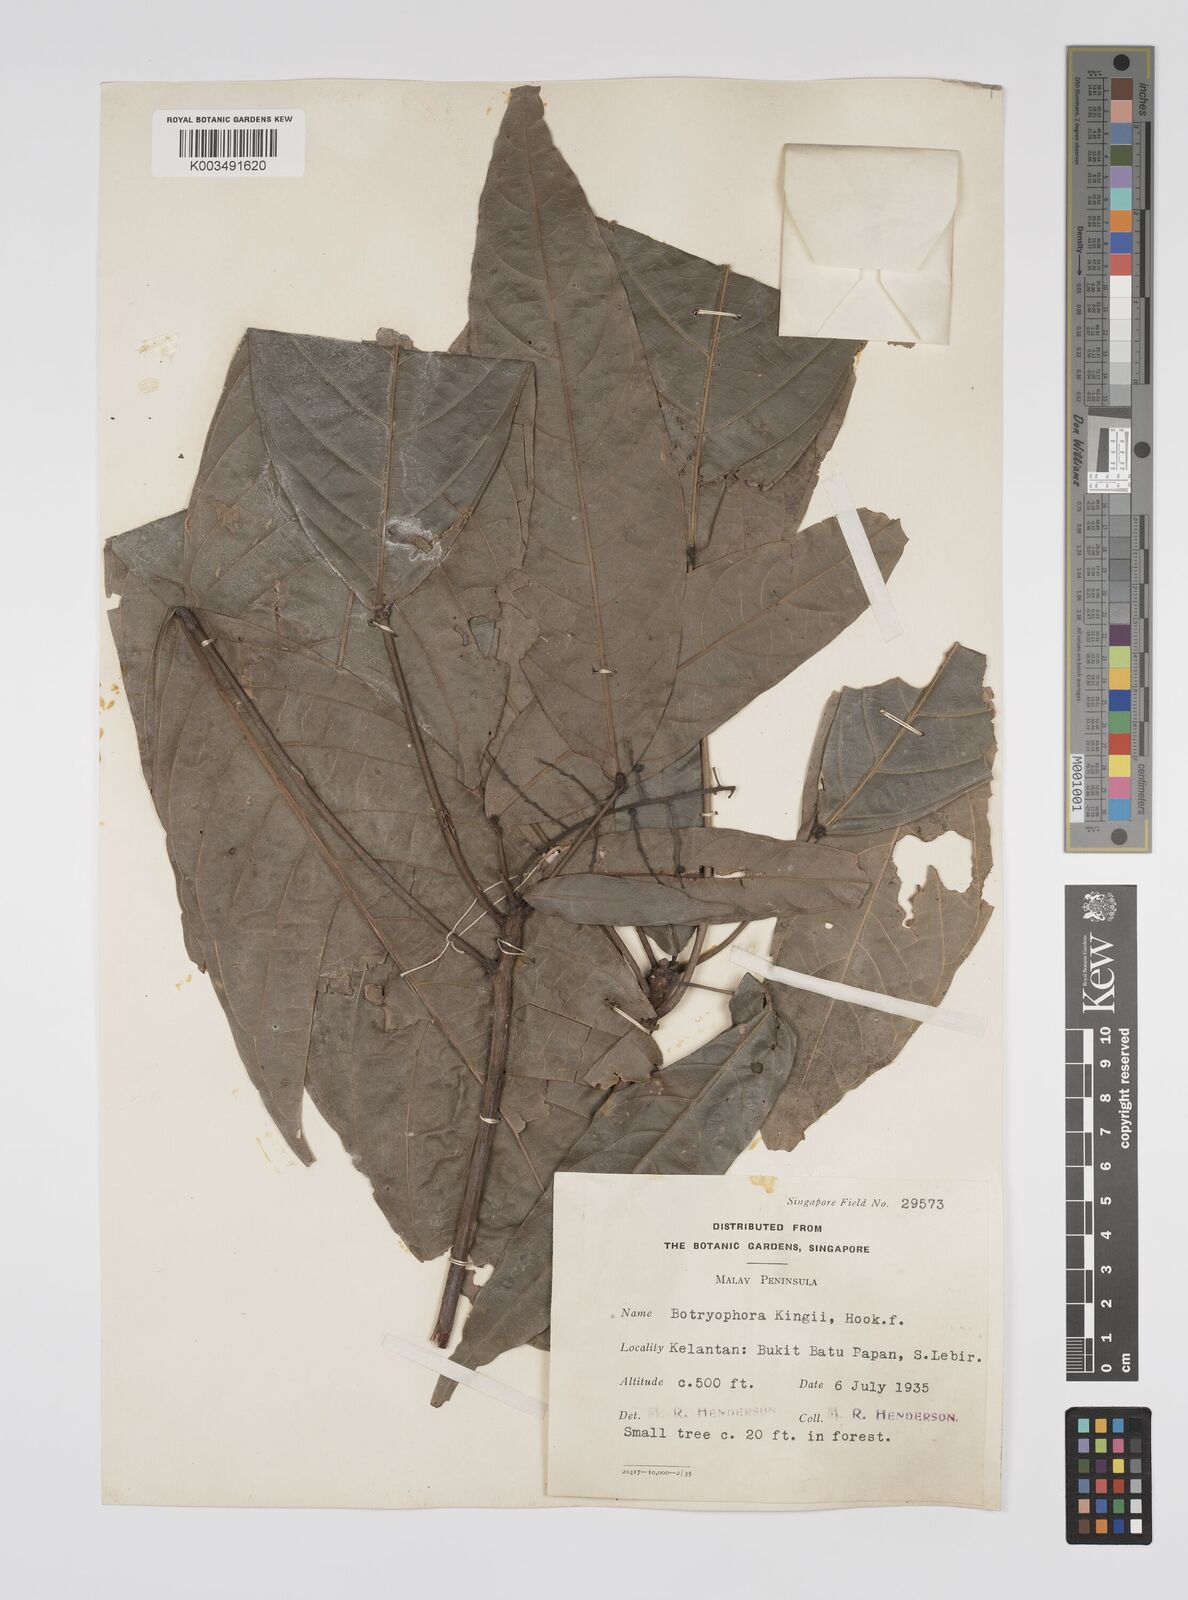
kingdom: Plantae
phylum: Tracheophyta
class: Magnoliopsida
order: Malpighiales
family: Euphorbiaceae
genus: Botryophora
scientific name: Botryophora geniculata
